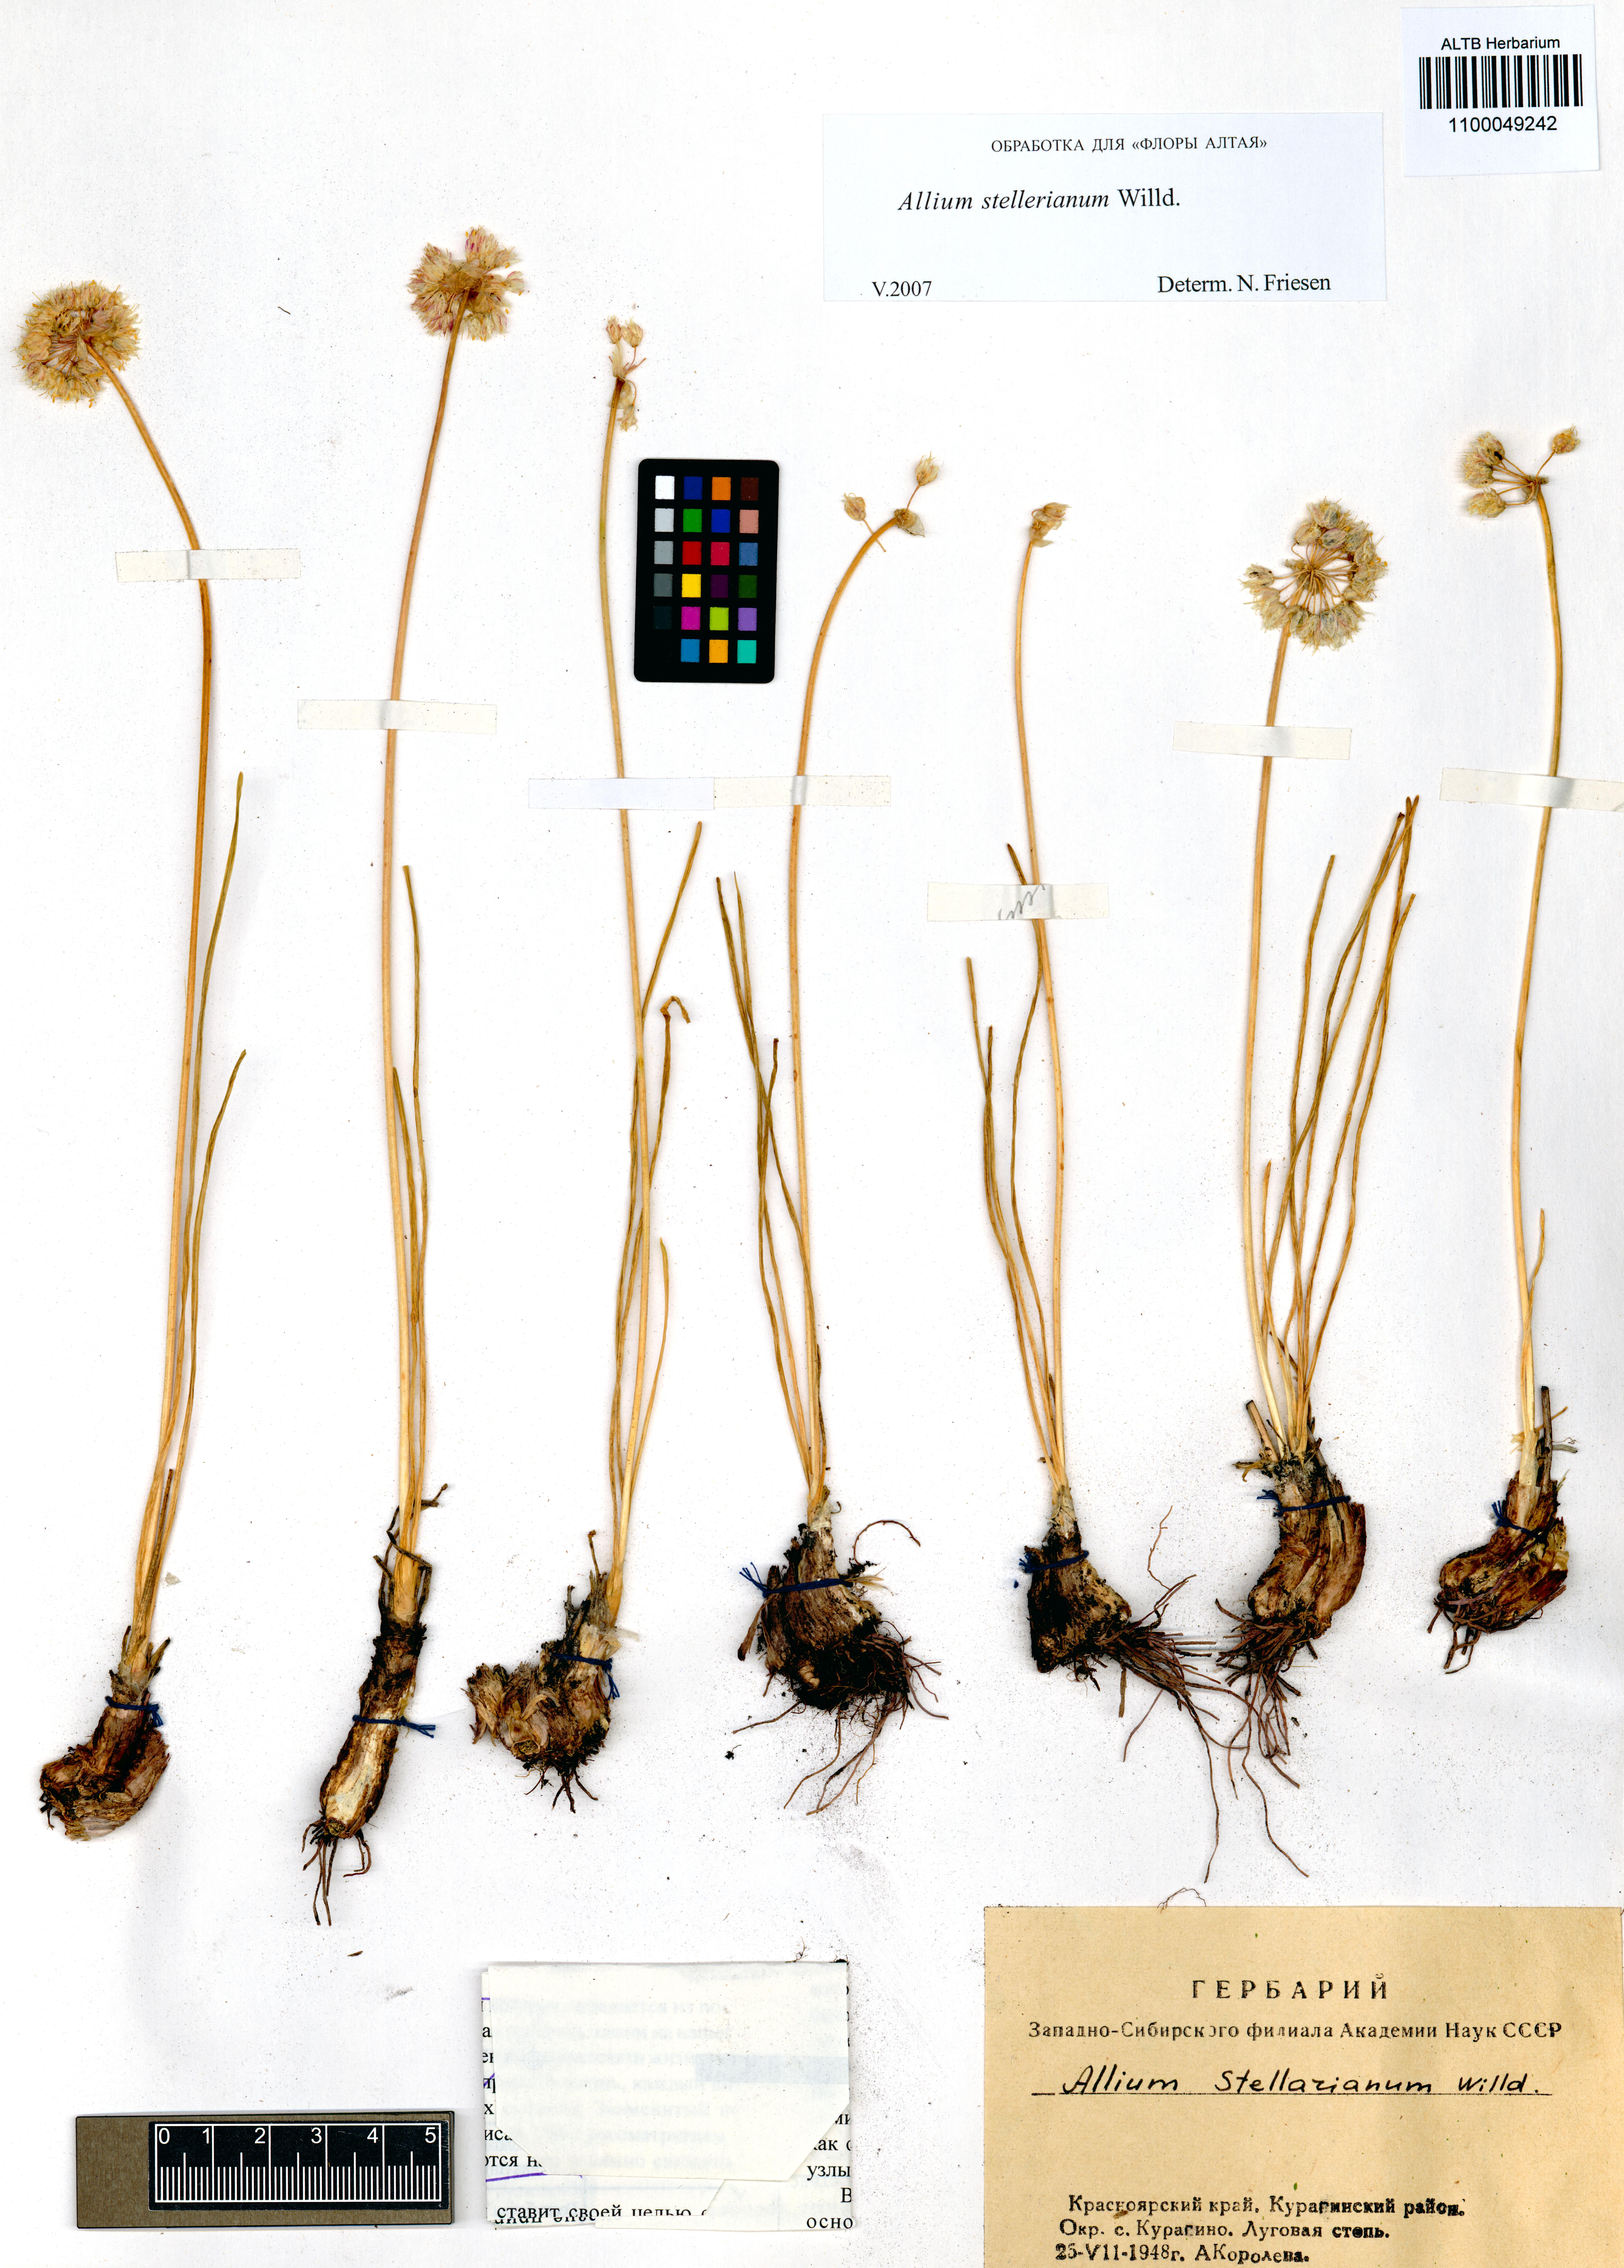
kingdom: Plantae
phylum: Tracheophyta
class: Liliopsida
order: Asparagales
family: Amaryllidaceae
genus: Allium
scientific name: Allium stellerianum
